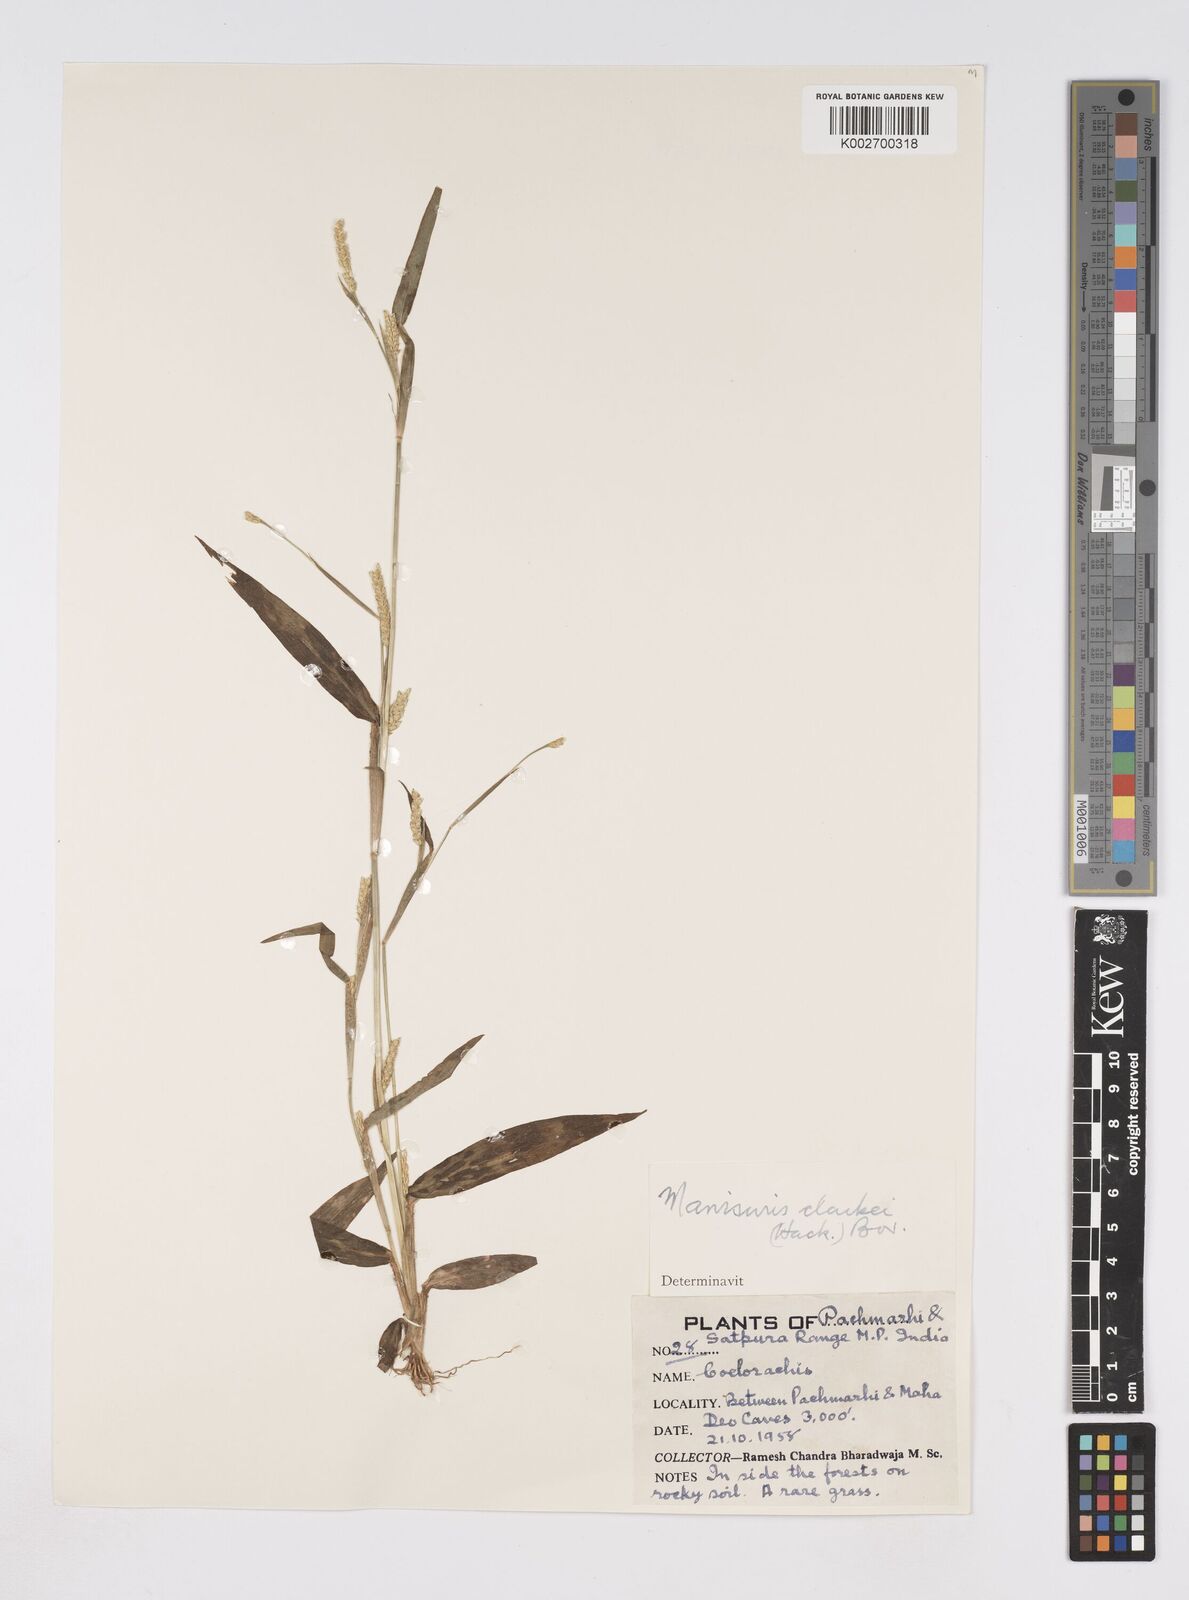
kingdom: Plantae
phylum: Tracheophyta
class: Liliopsida
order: Poales
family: Poaceae
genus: Rottboellia
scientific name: Rottboellia clarkei
